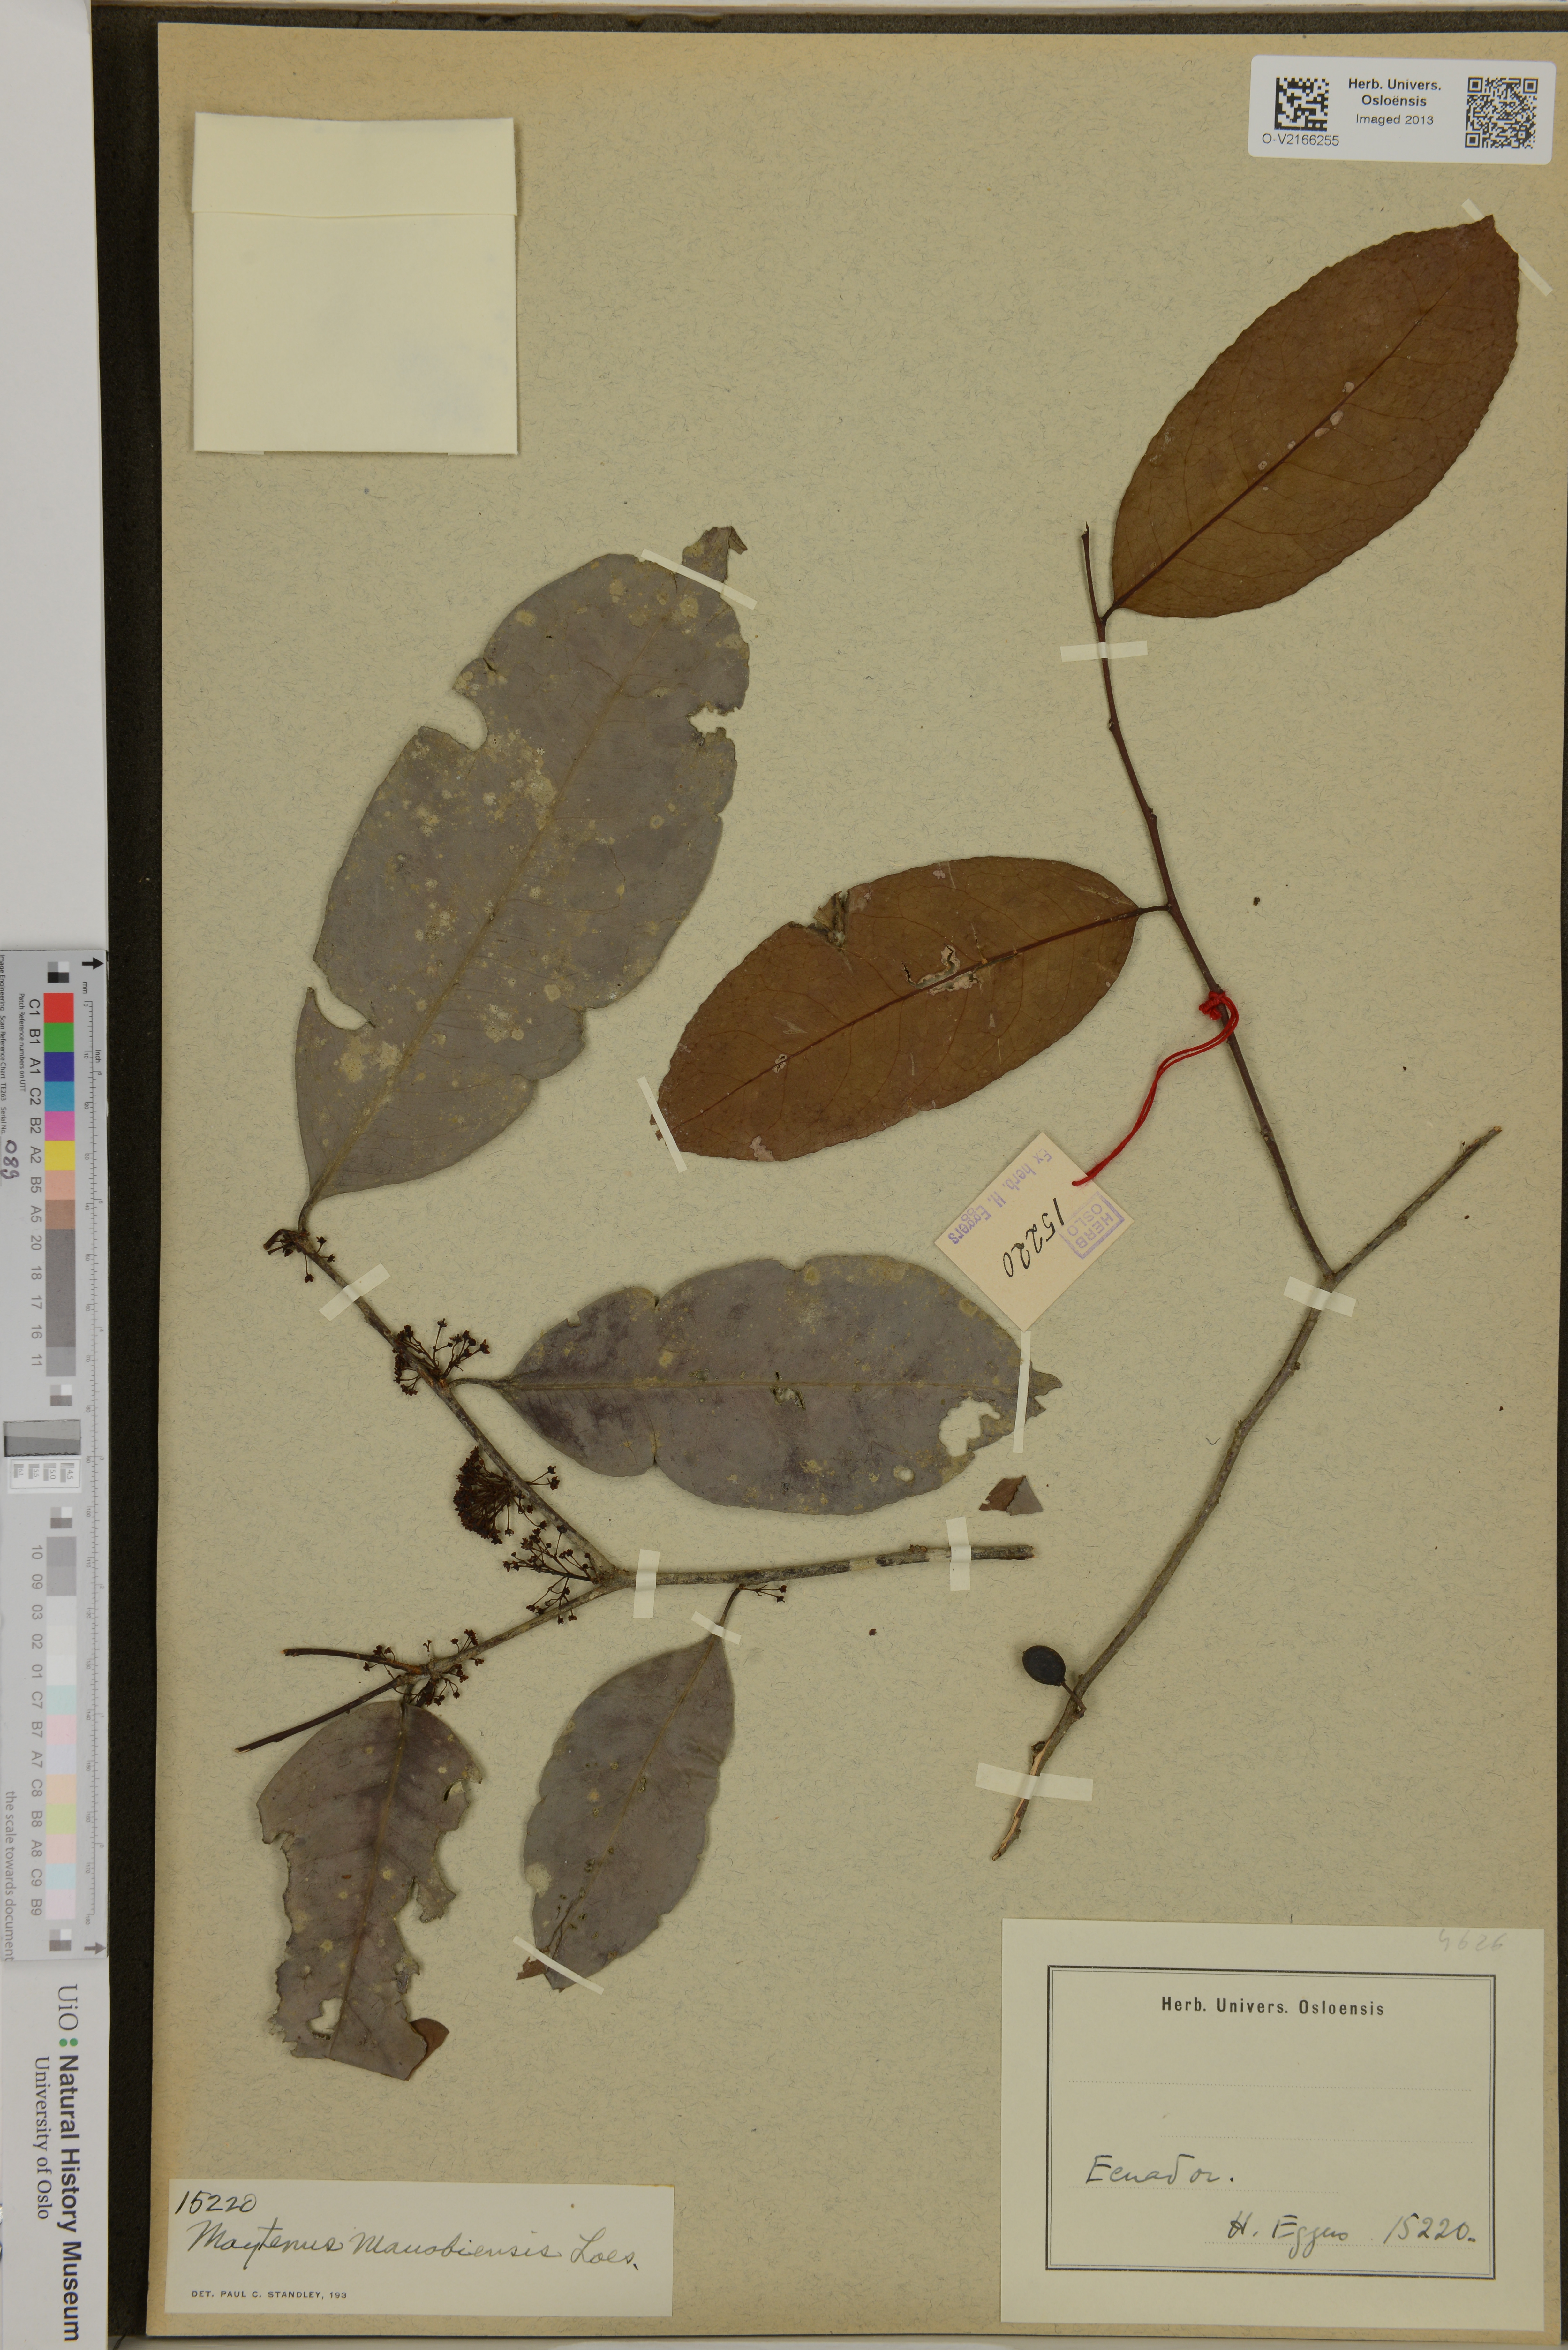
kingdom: Plantae
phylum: Tracheophyta
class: Magnoliopsida
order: Celastrales
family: Celastraceae
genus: Monteverdia
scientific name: Monteverdia manabiensis
